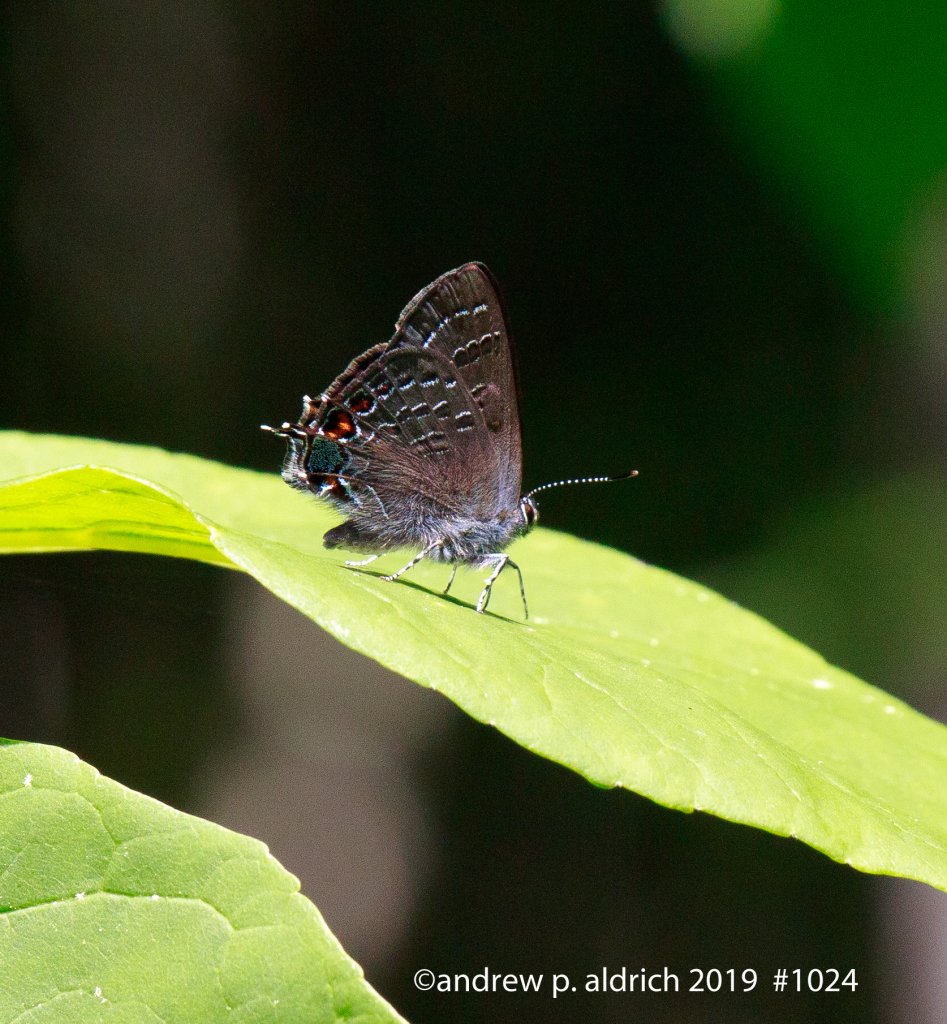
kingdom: Animalia
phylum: Arthropoda
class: Insecta
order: Lepidoptera
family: Lycaenidae
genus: Satyrium
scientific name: Satyrium calanus
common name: Banded Hairstreak
